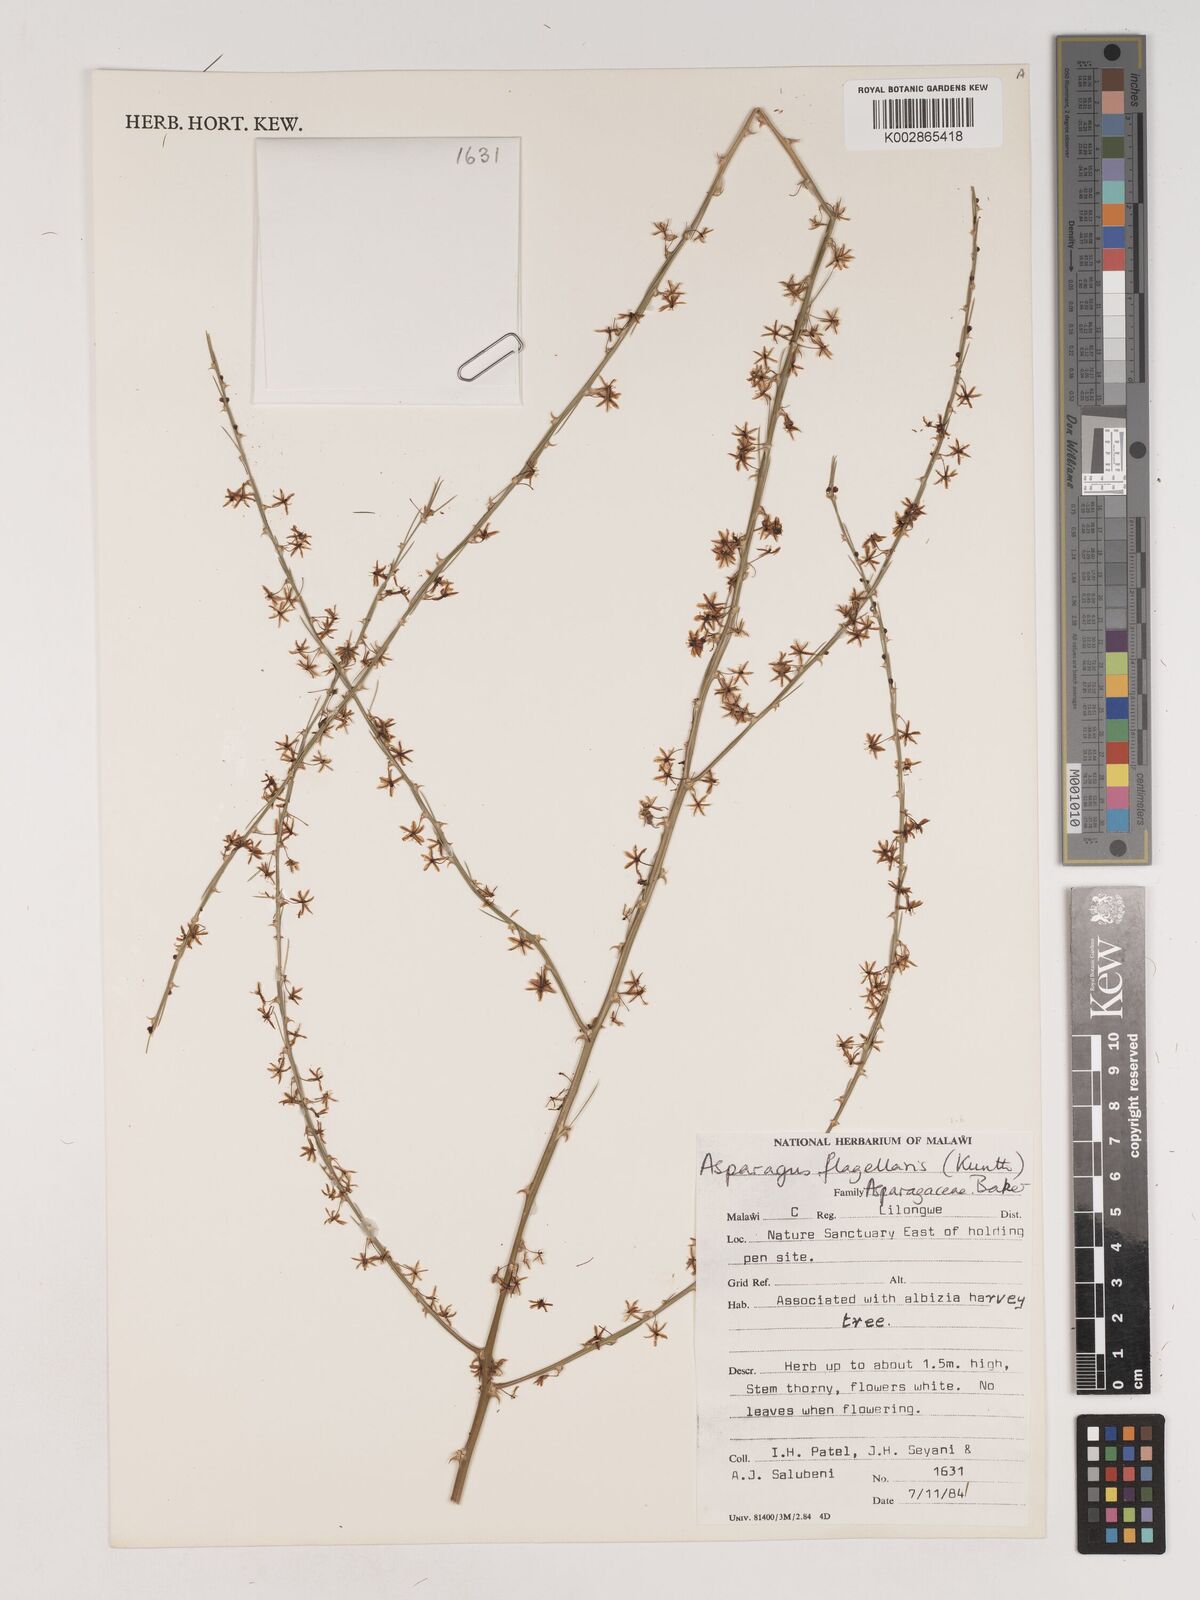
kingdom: Plantae
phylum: Tracheophyta
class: Liliopsida
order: Asparagales
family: Asparagaceae
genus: Asparagus
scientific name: Asparagus flagellaris
